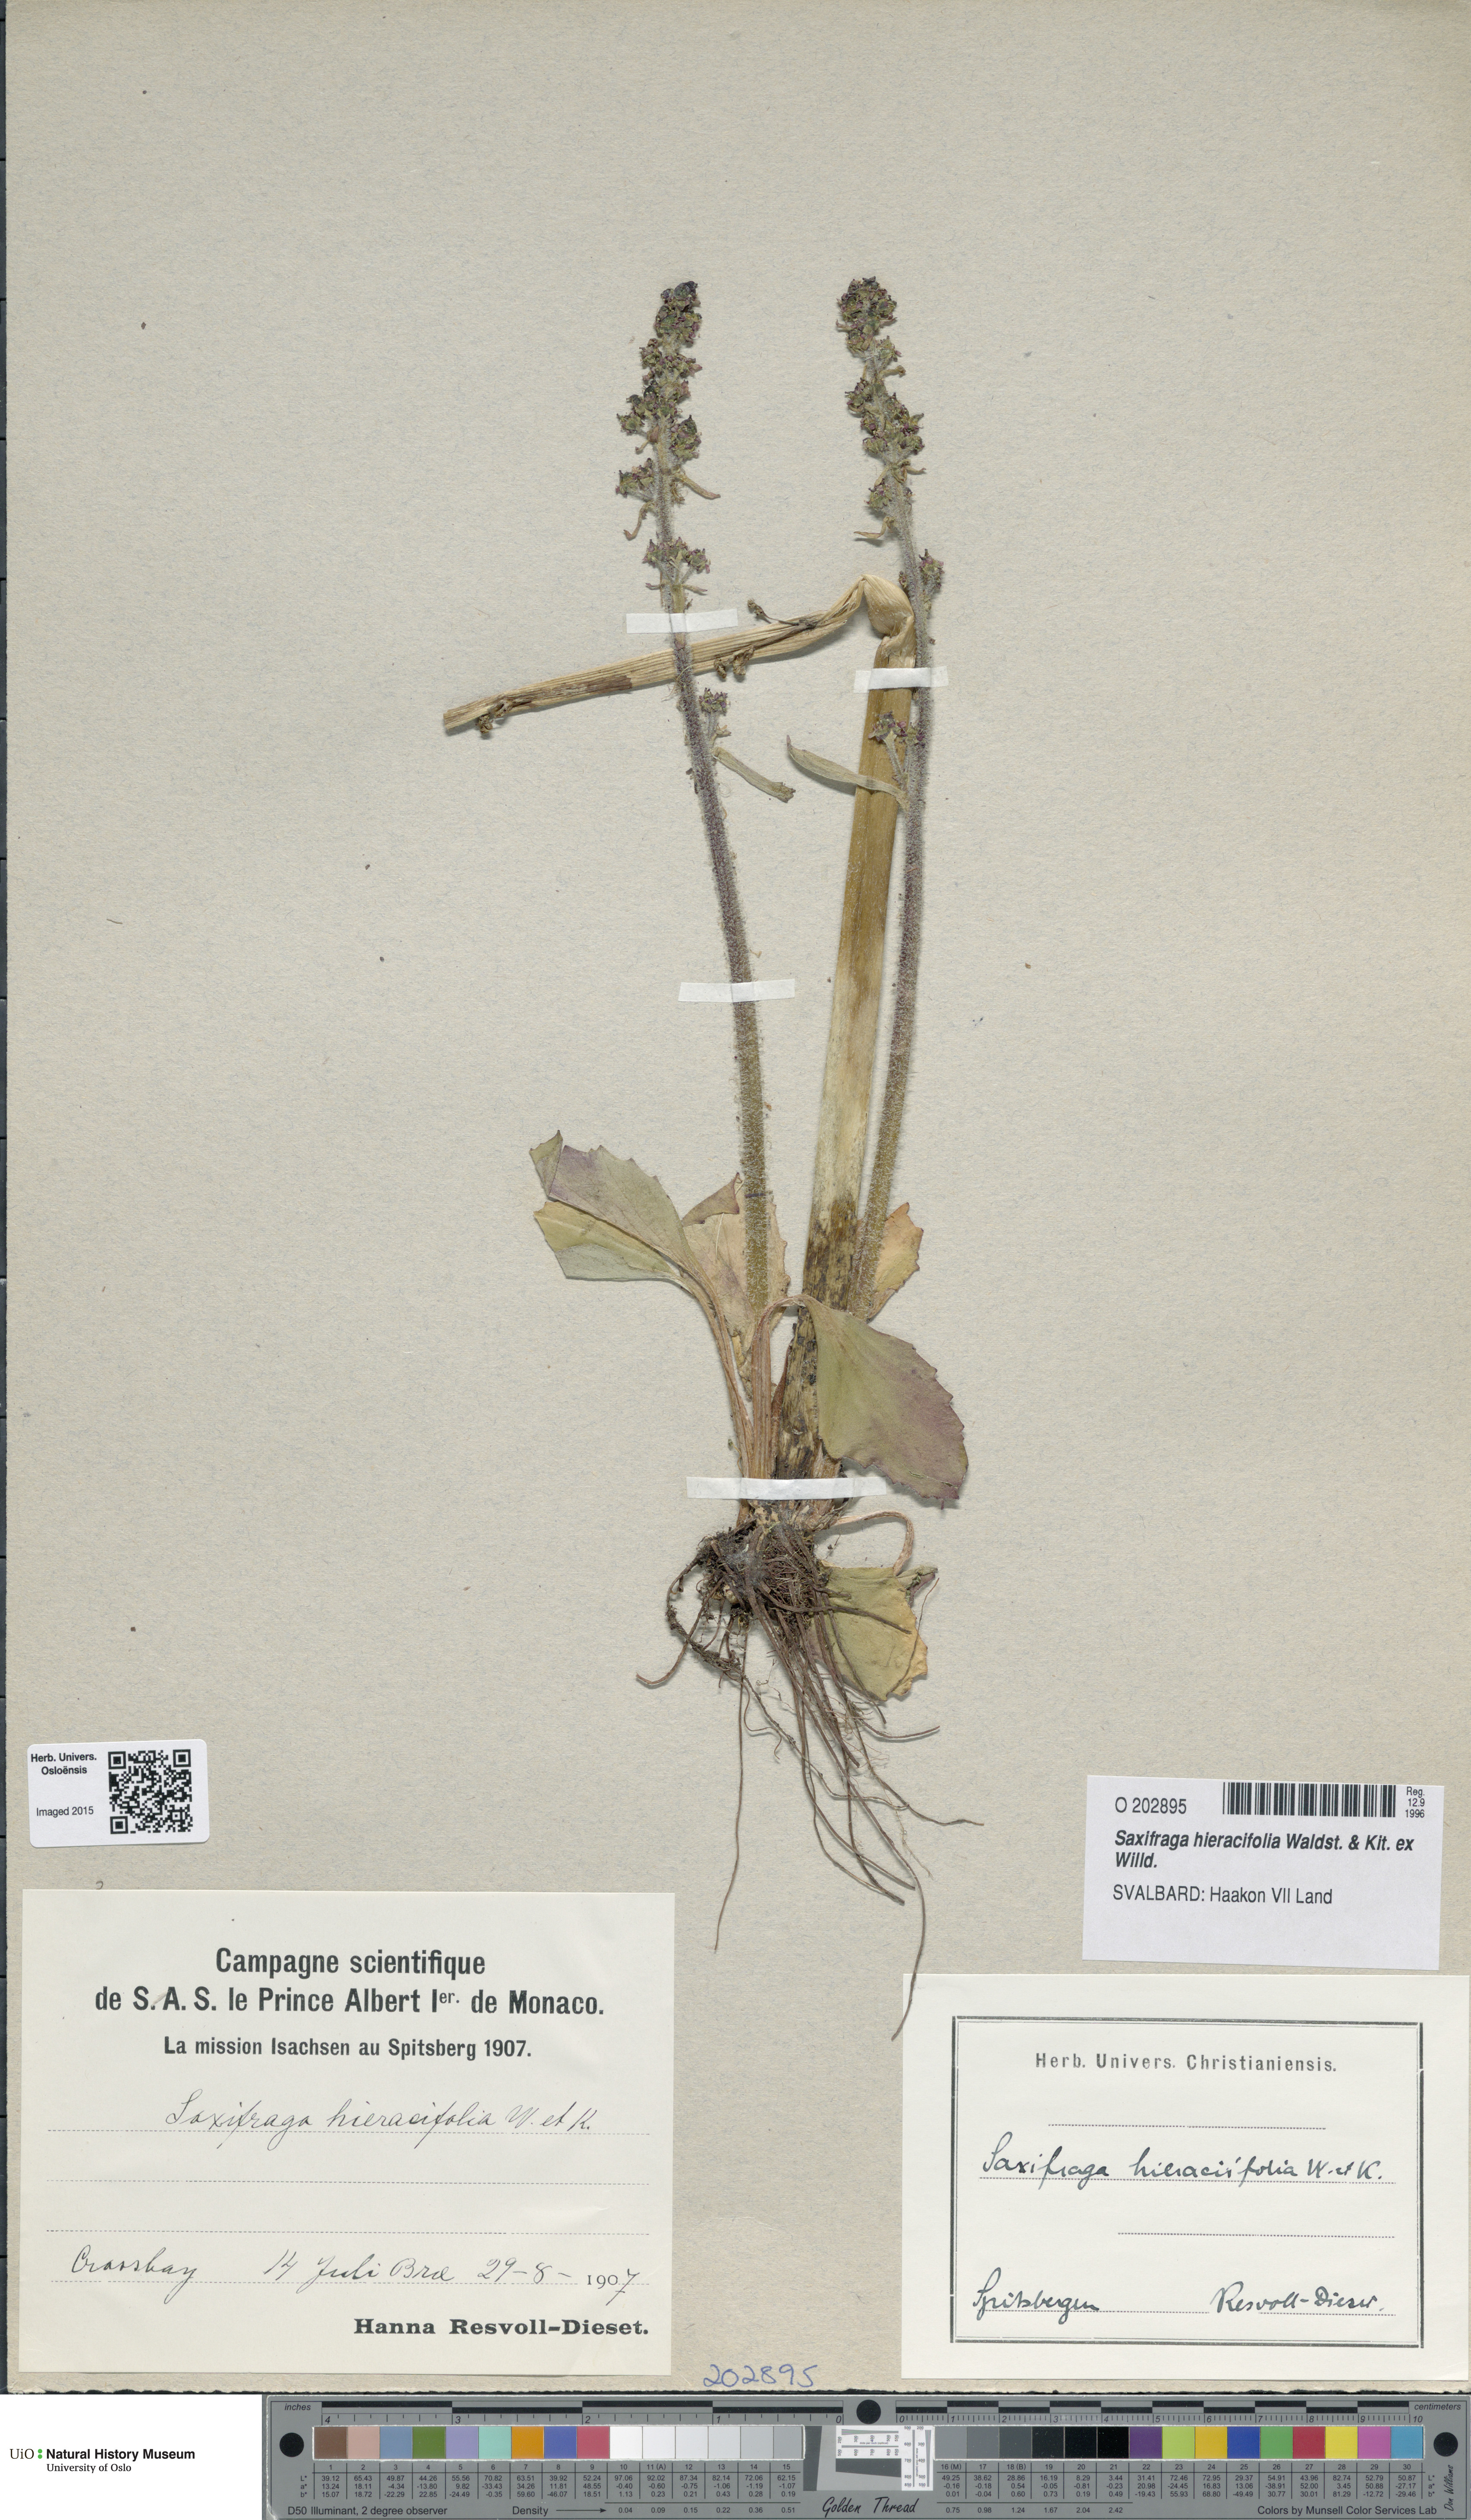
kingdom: Plantae
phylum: Tracheophyta
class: Magnoliopsida
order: Saxifragales
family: Saxifragaceae
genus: Micranthes
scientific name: Micranthes hieraciifolia
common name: Hawkweed-leaved saxifrage
